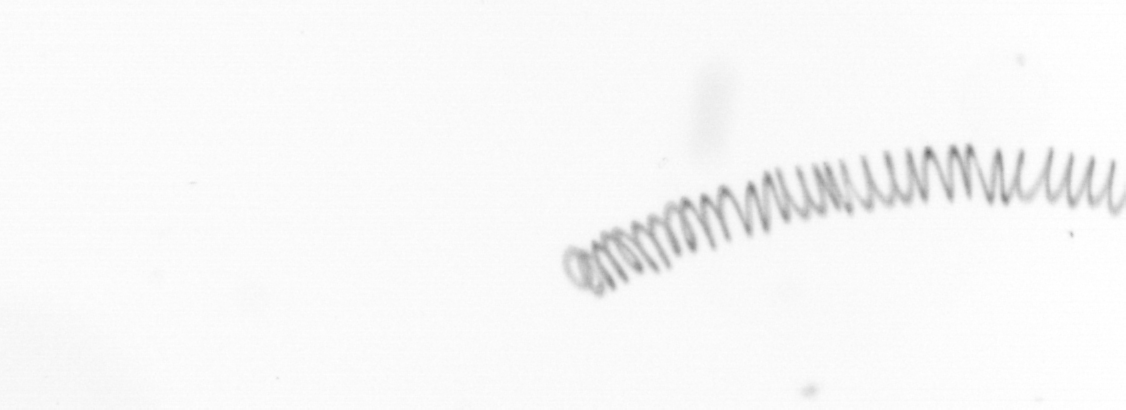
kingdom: Chromista
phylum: Ochrophyta
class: Bacillariophyceae
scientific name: Bacillariophyceae
